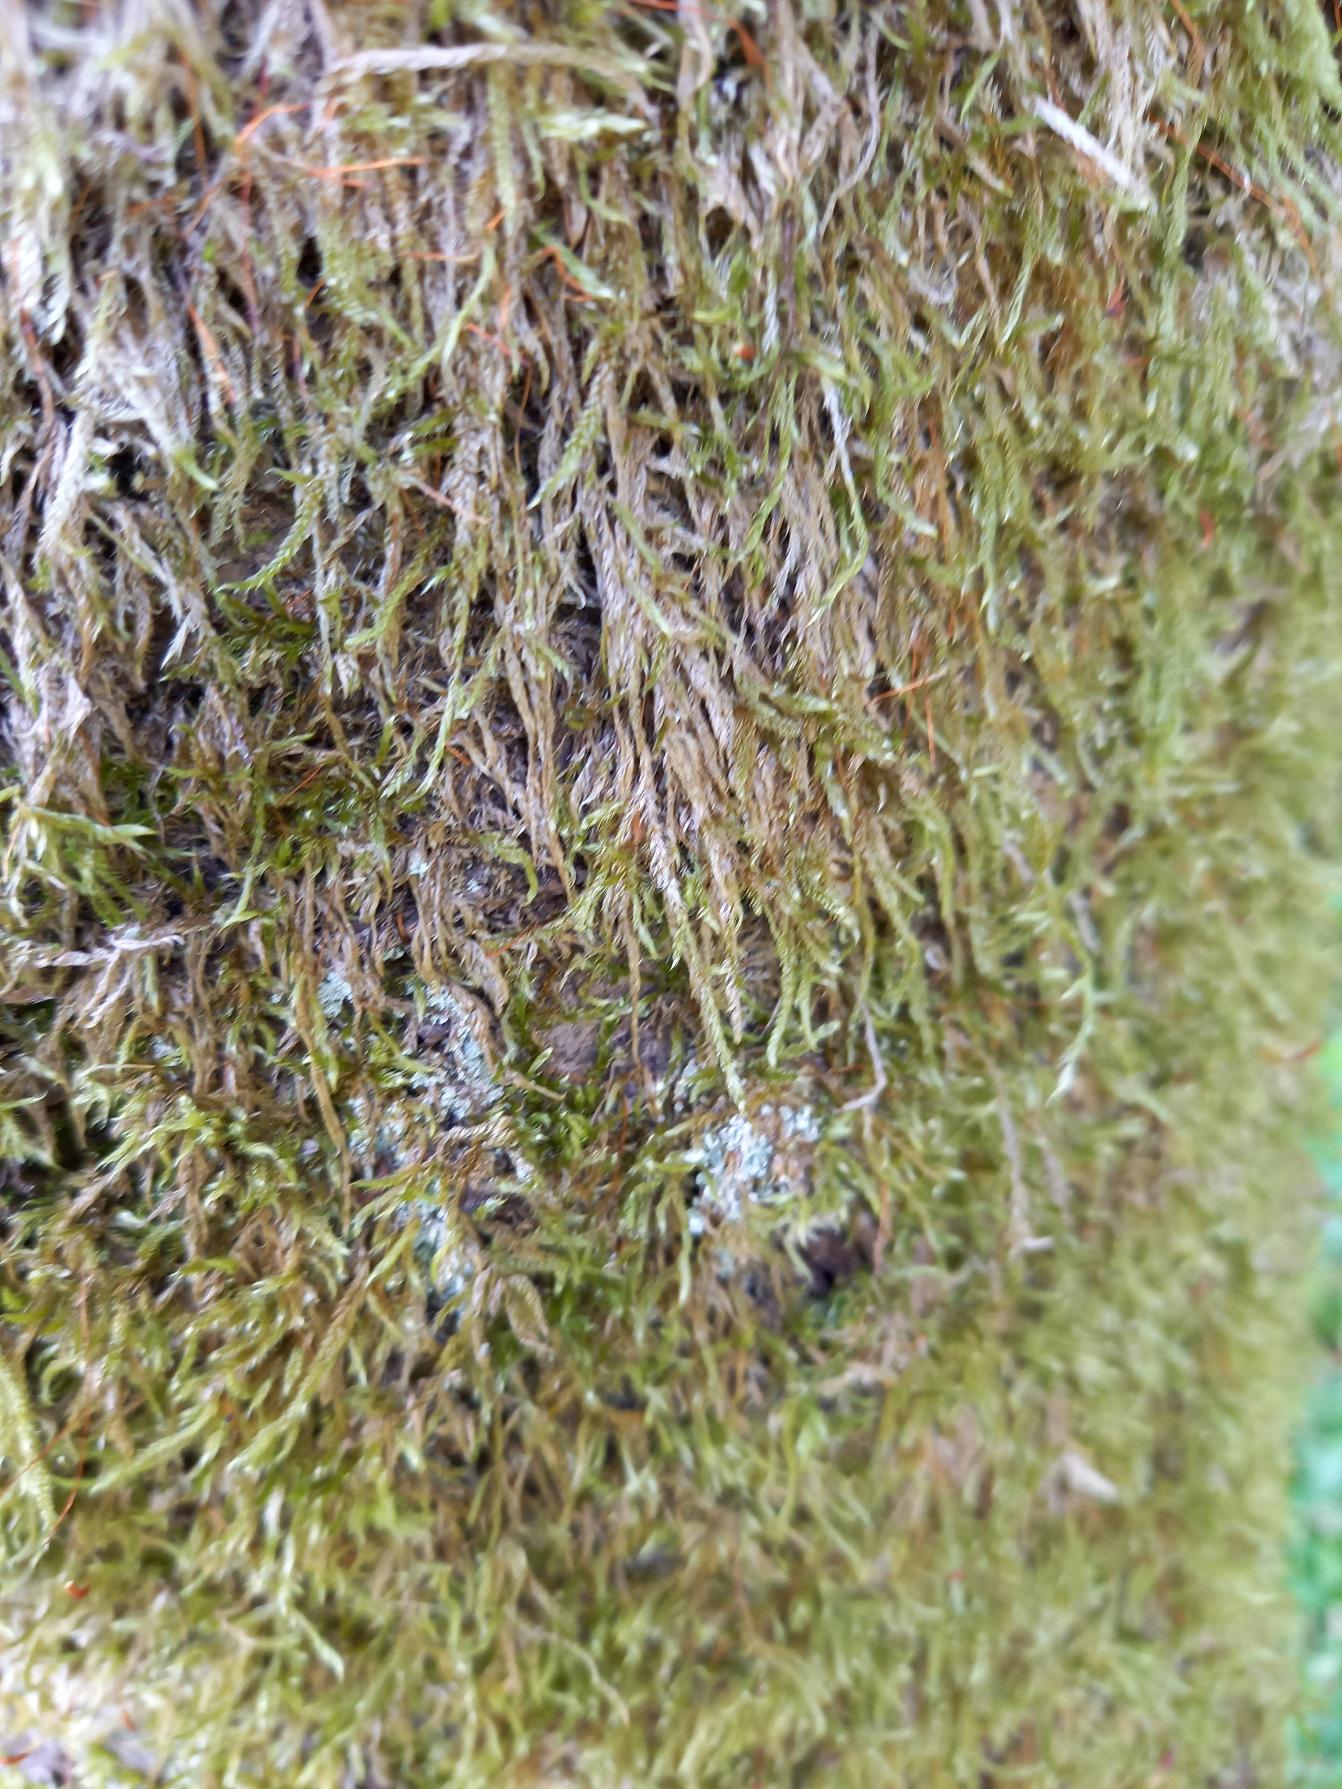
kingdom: Fungi
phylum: Ascomycota
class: Lecanoromycetes
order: Lecanorales
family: Cladoniaceae
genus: Cladonia
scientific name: Cladonia
